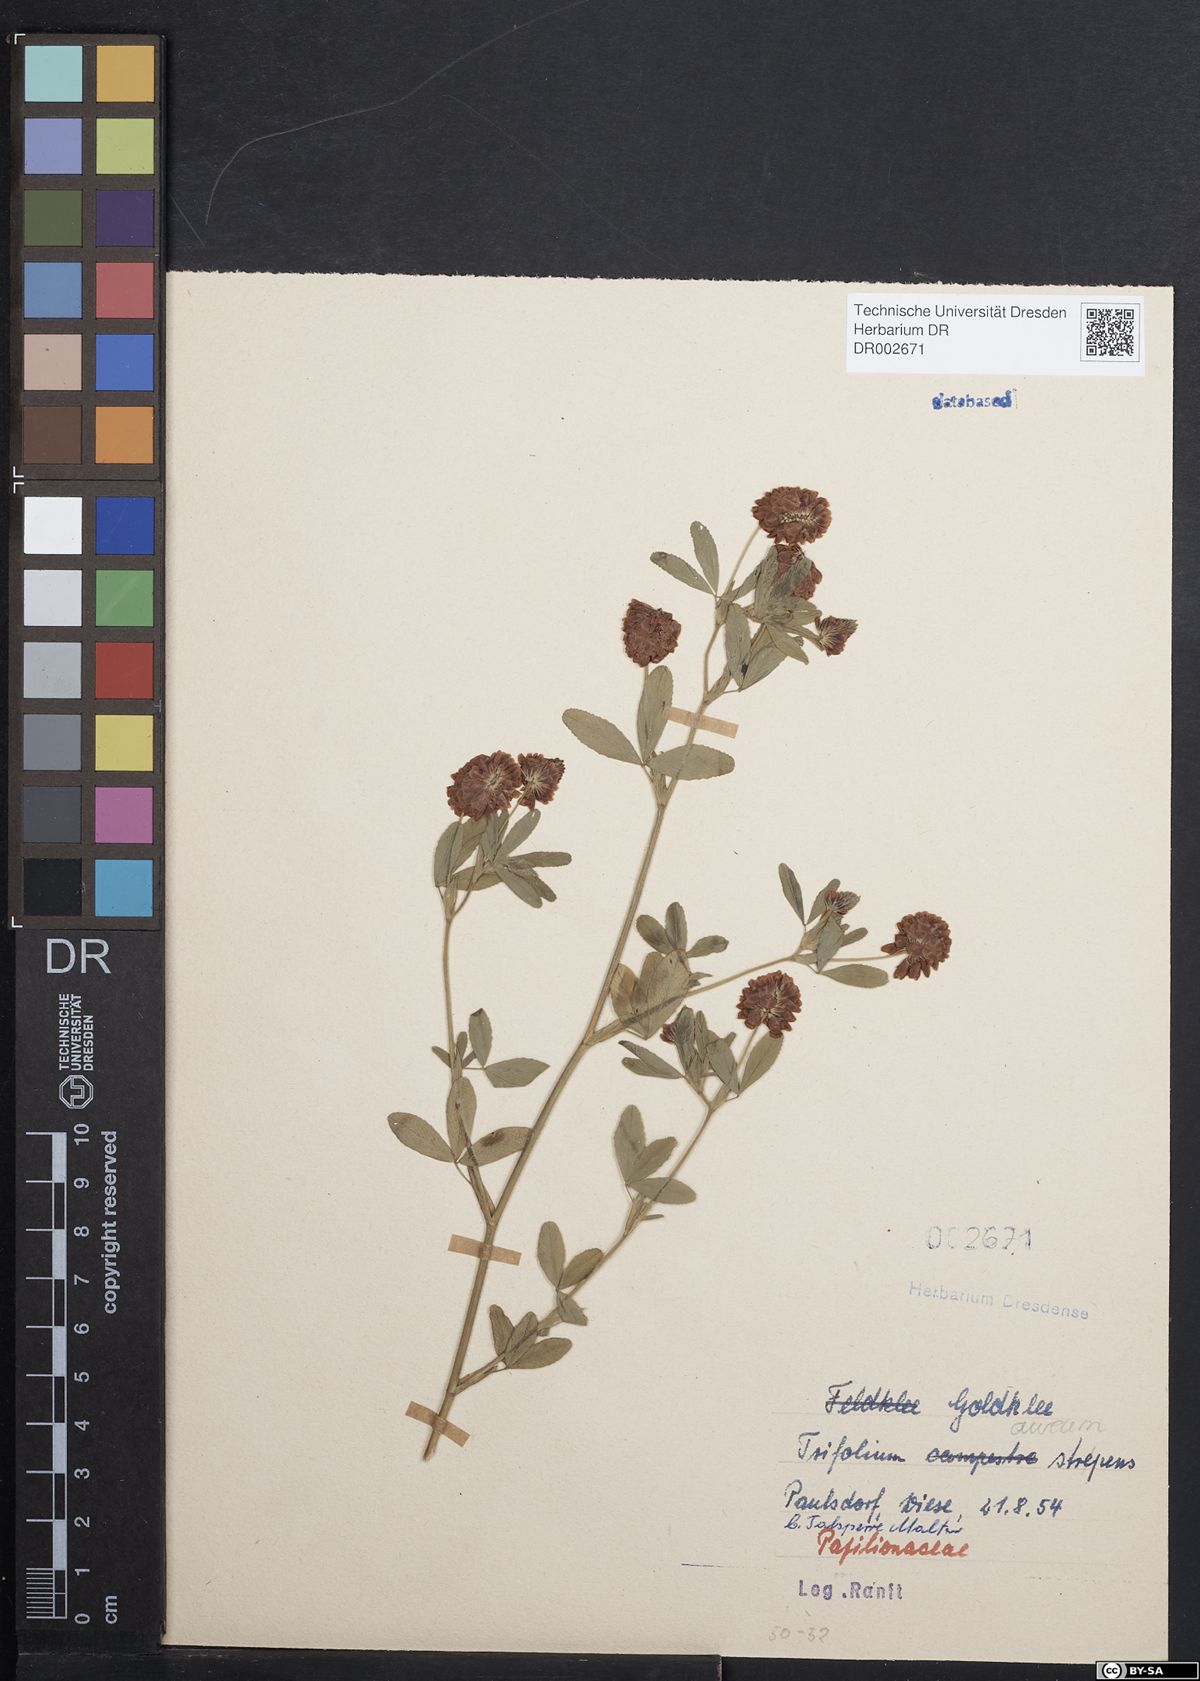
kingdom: Plantae
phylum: Tracheophyta
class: Magnoliopsida
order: Fabales
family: Fabaceae
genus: Trifolium
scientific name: Trifolium aureum
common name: Golden clover
